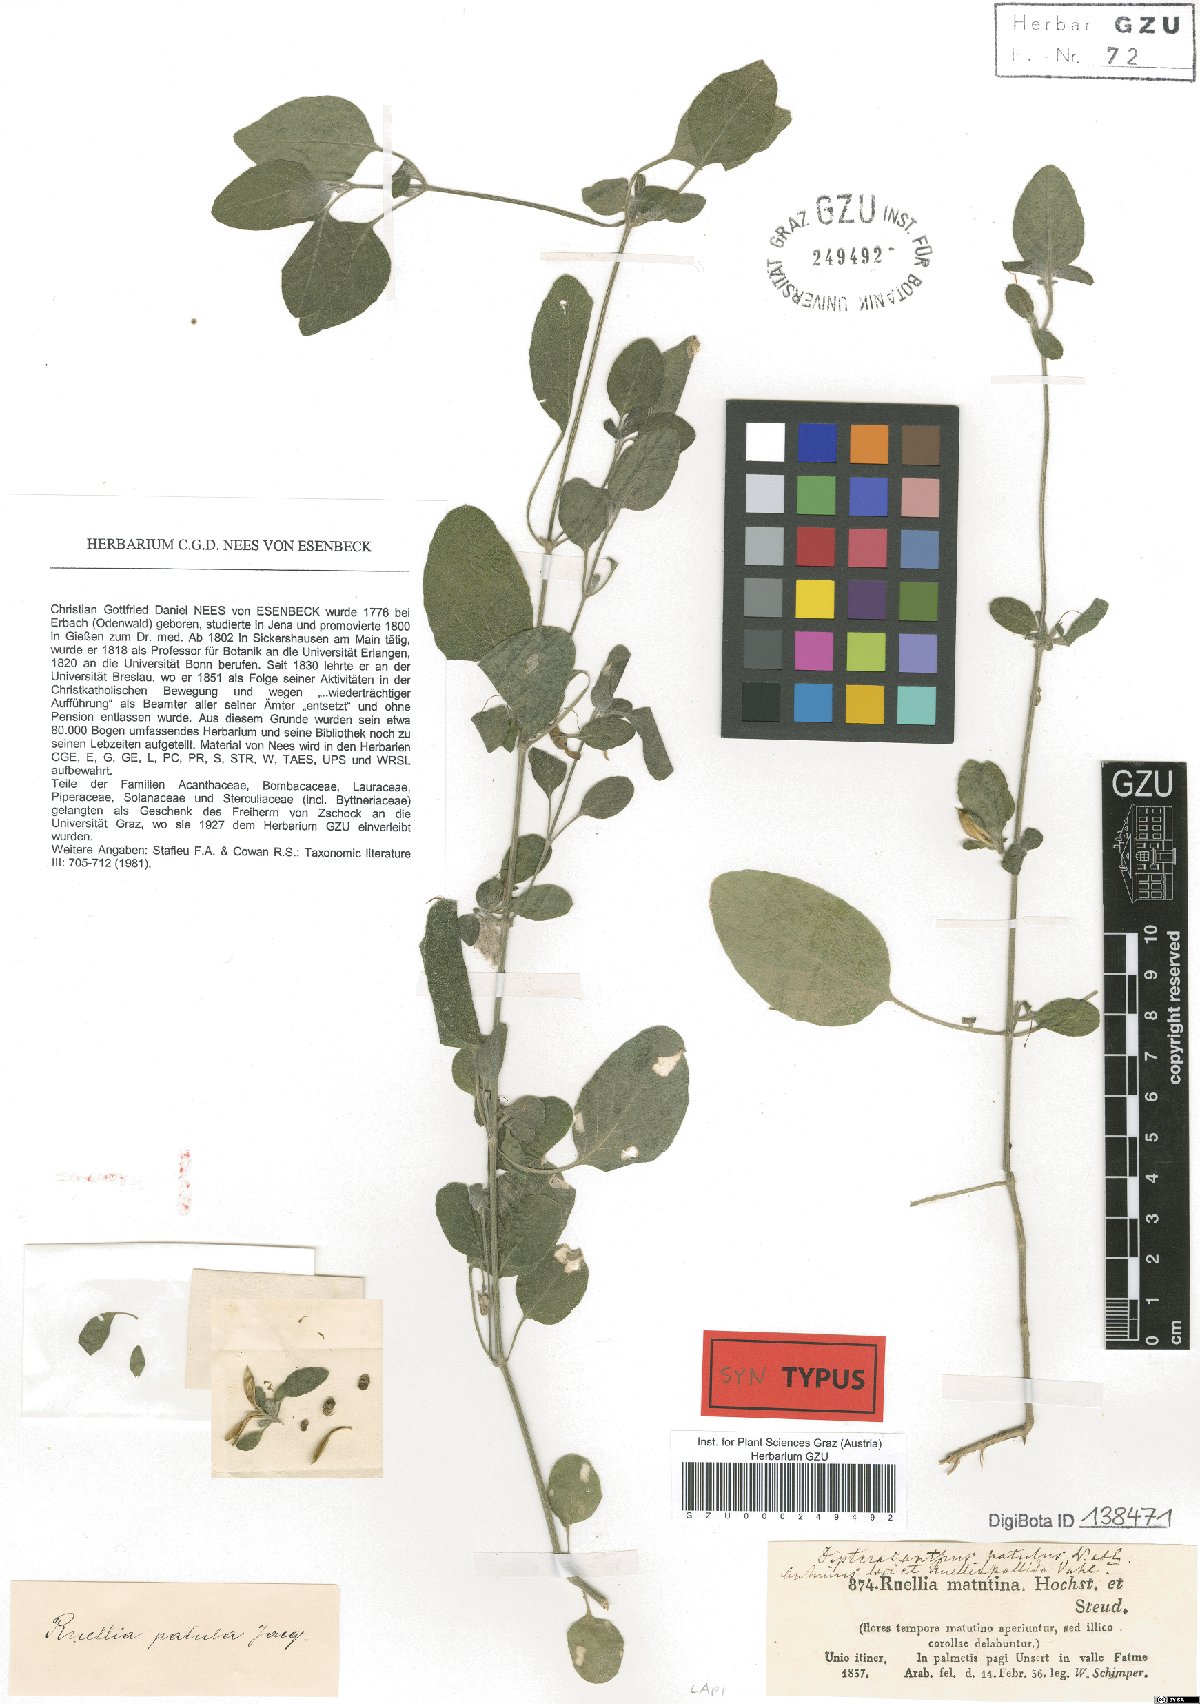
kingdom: Plantae
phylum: Tracheophyta
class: Magnoliopsida
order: Lamiales
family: Acanthaceae
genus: Ruellia
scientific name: Ruellia patula
